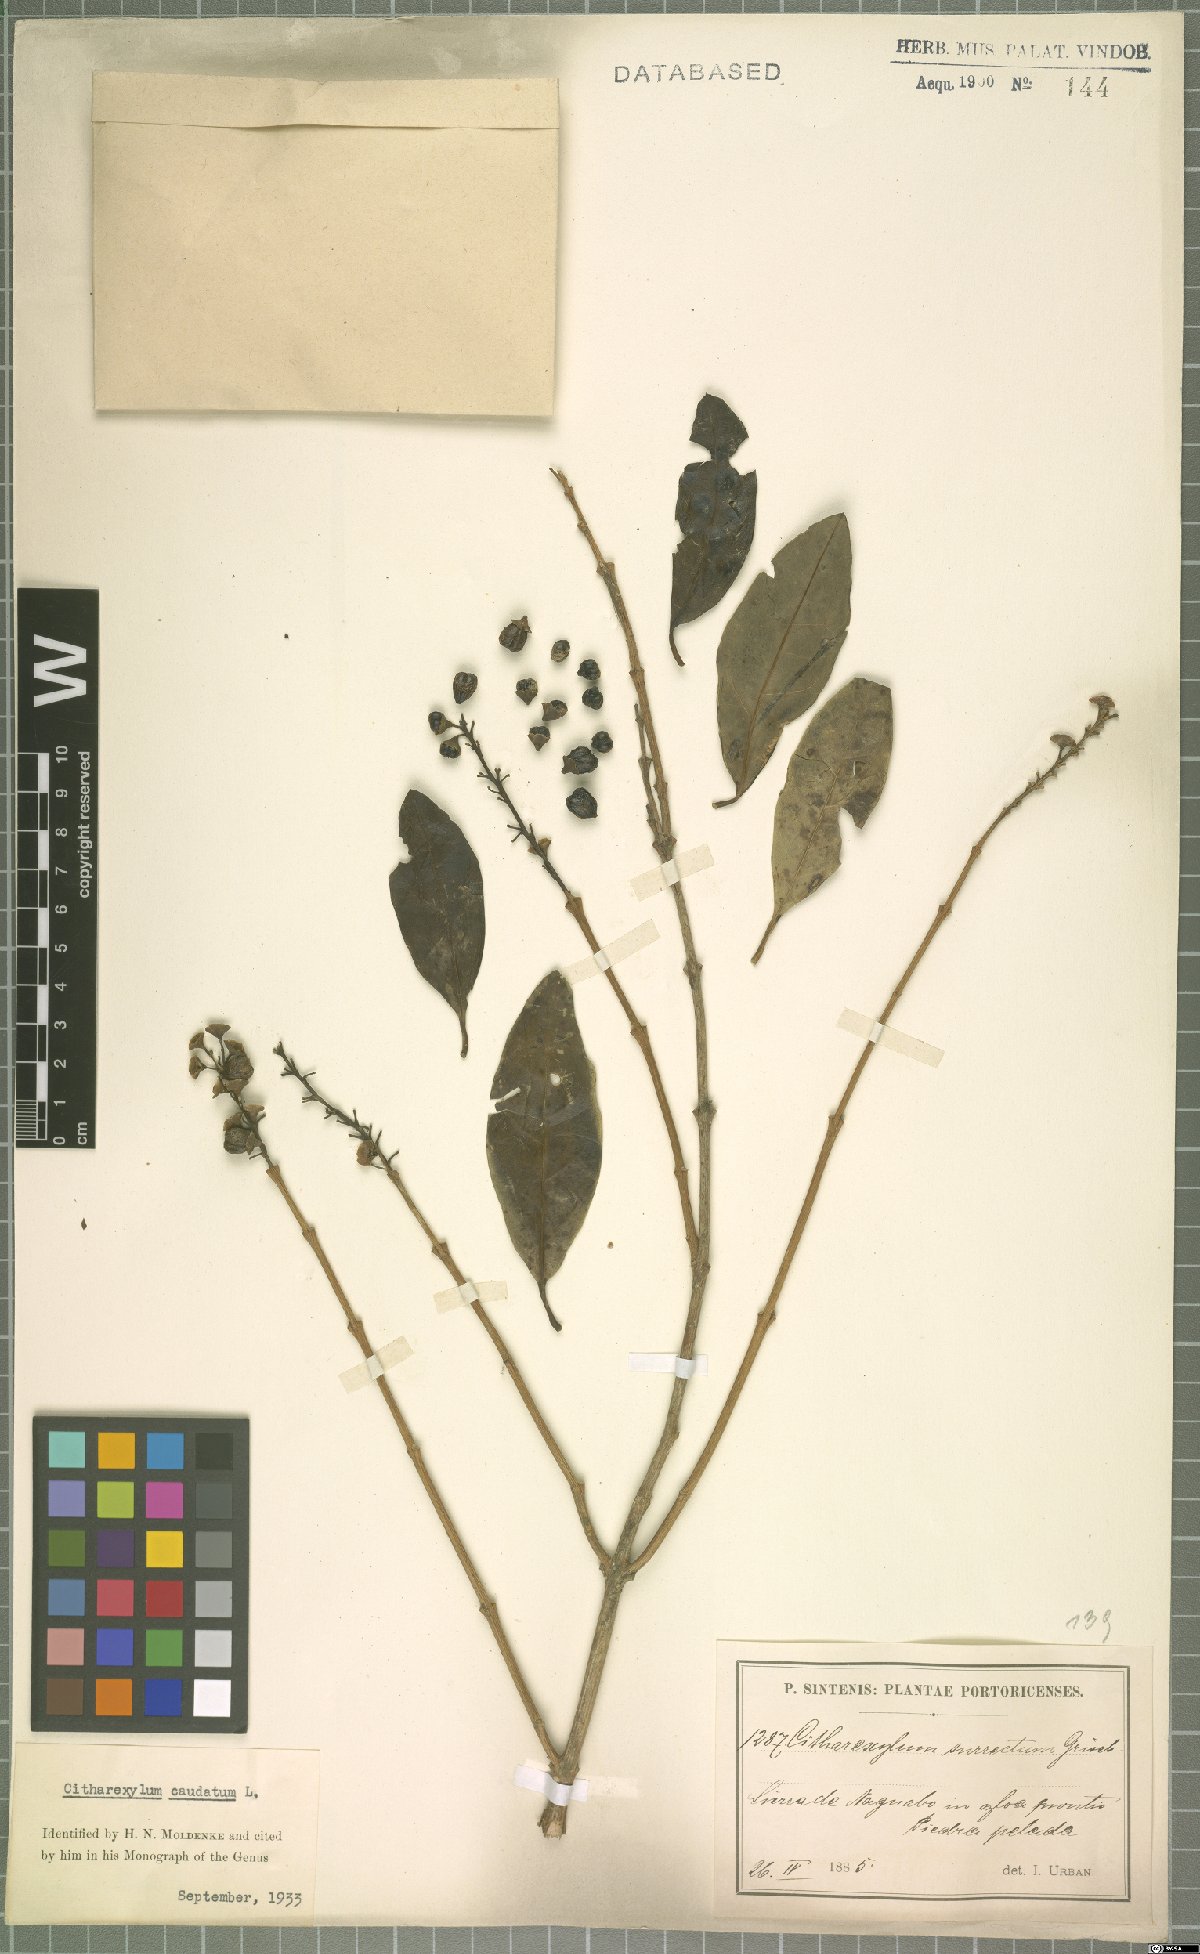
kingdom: Plantae
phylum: Tracheophyta
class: Magnoliopsida
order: Lamiales
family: Verbenaceae
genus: Citharexylum
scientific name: Citharexylum caudatum
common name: Fiddlewood
